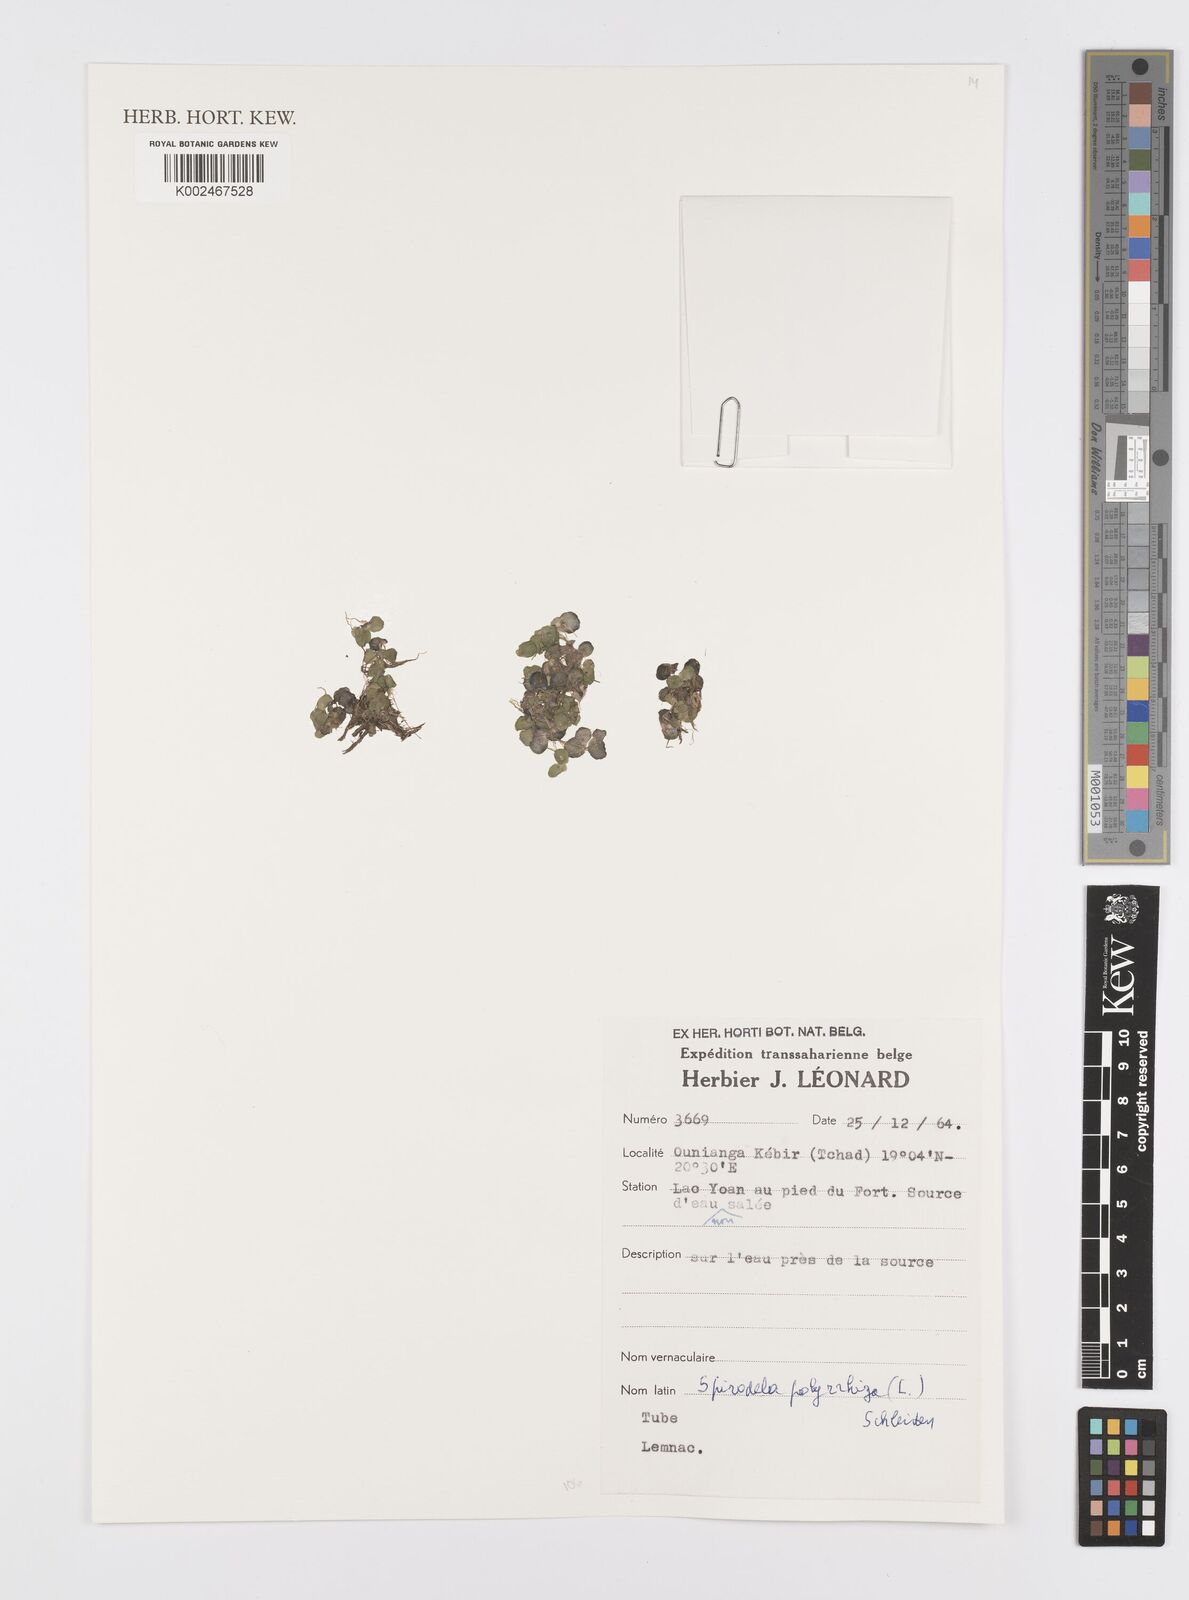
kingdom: Plantae
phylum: Tracheophyta
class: Liliopsida
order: Alismatales
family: Araceae
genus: Spirodela
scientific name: Spirodela polyrhiza
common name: Great duckweed
